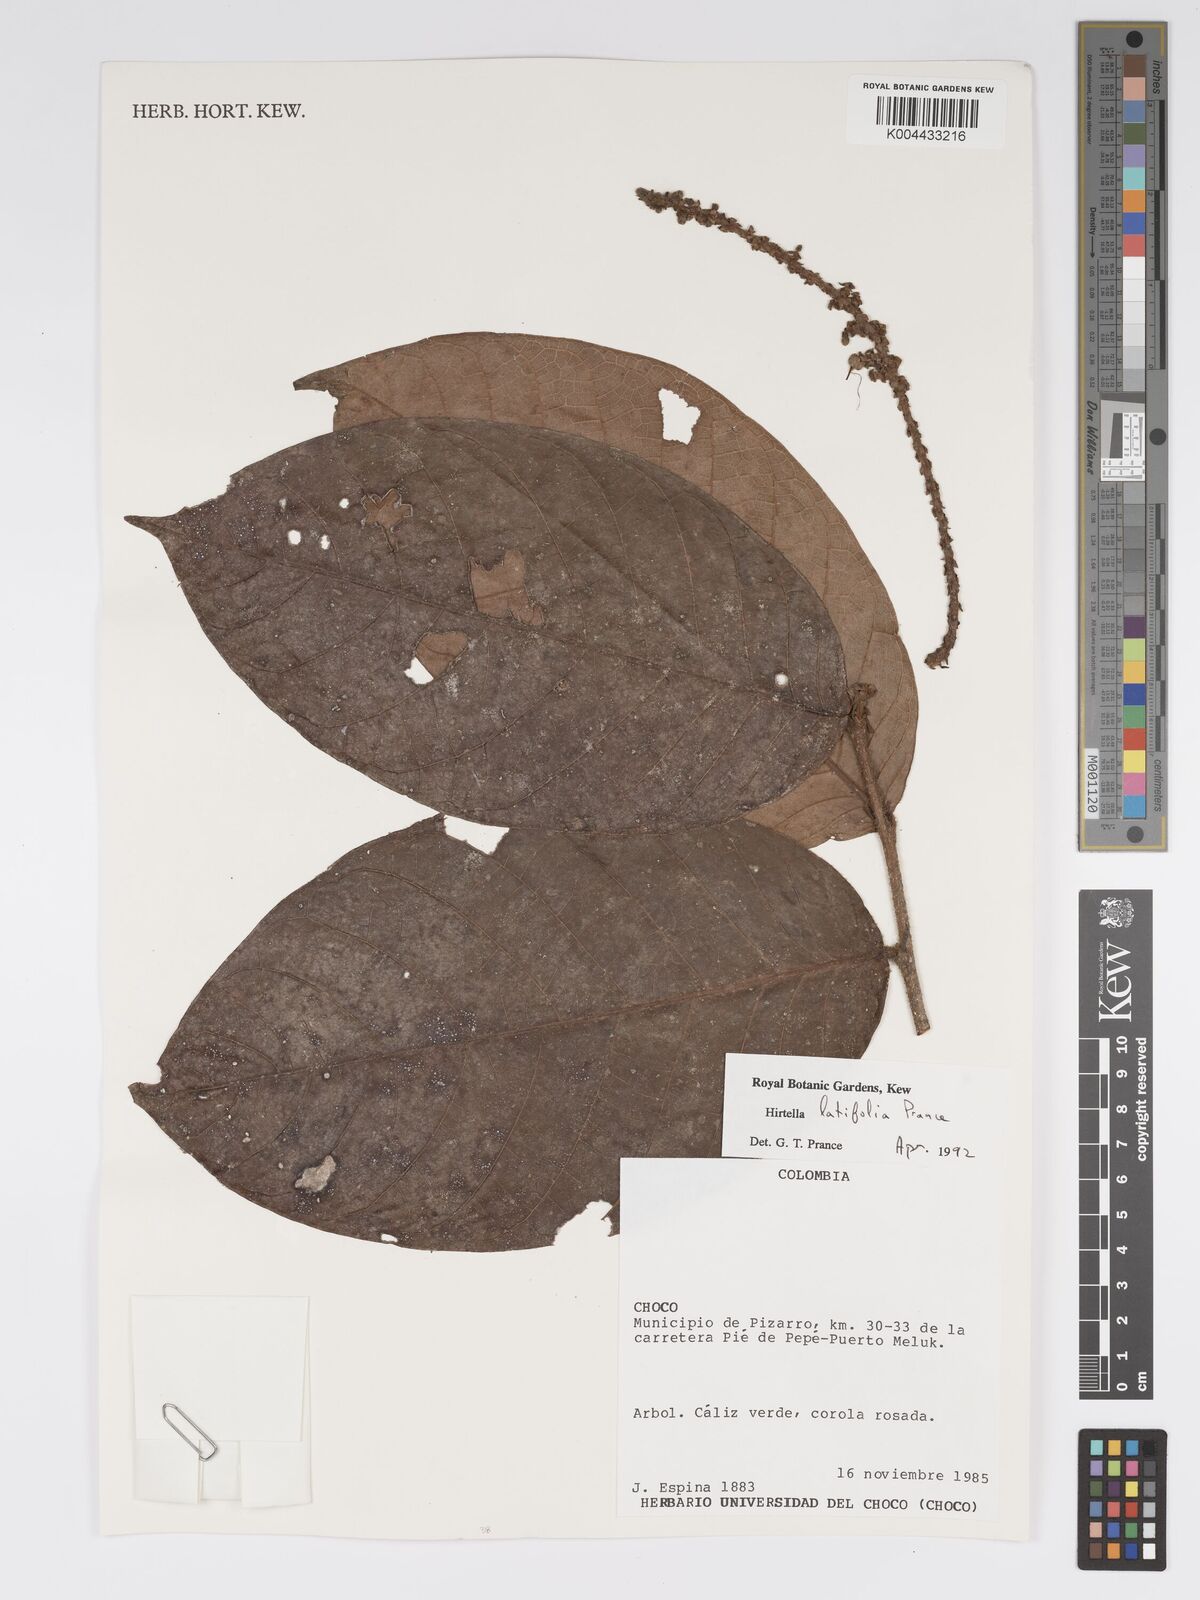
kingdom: Plantae
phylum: Tracheophyta
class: Magnoliopsida
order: Malpighiales
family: Chrysobalanaceae
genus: Hirtella
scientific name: Hirtella latifolia
